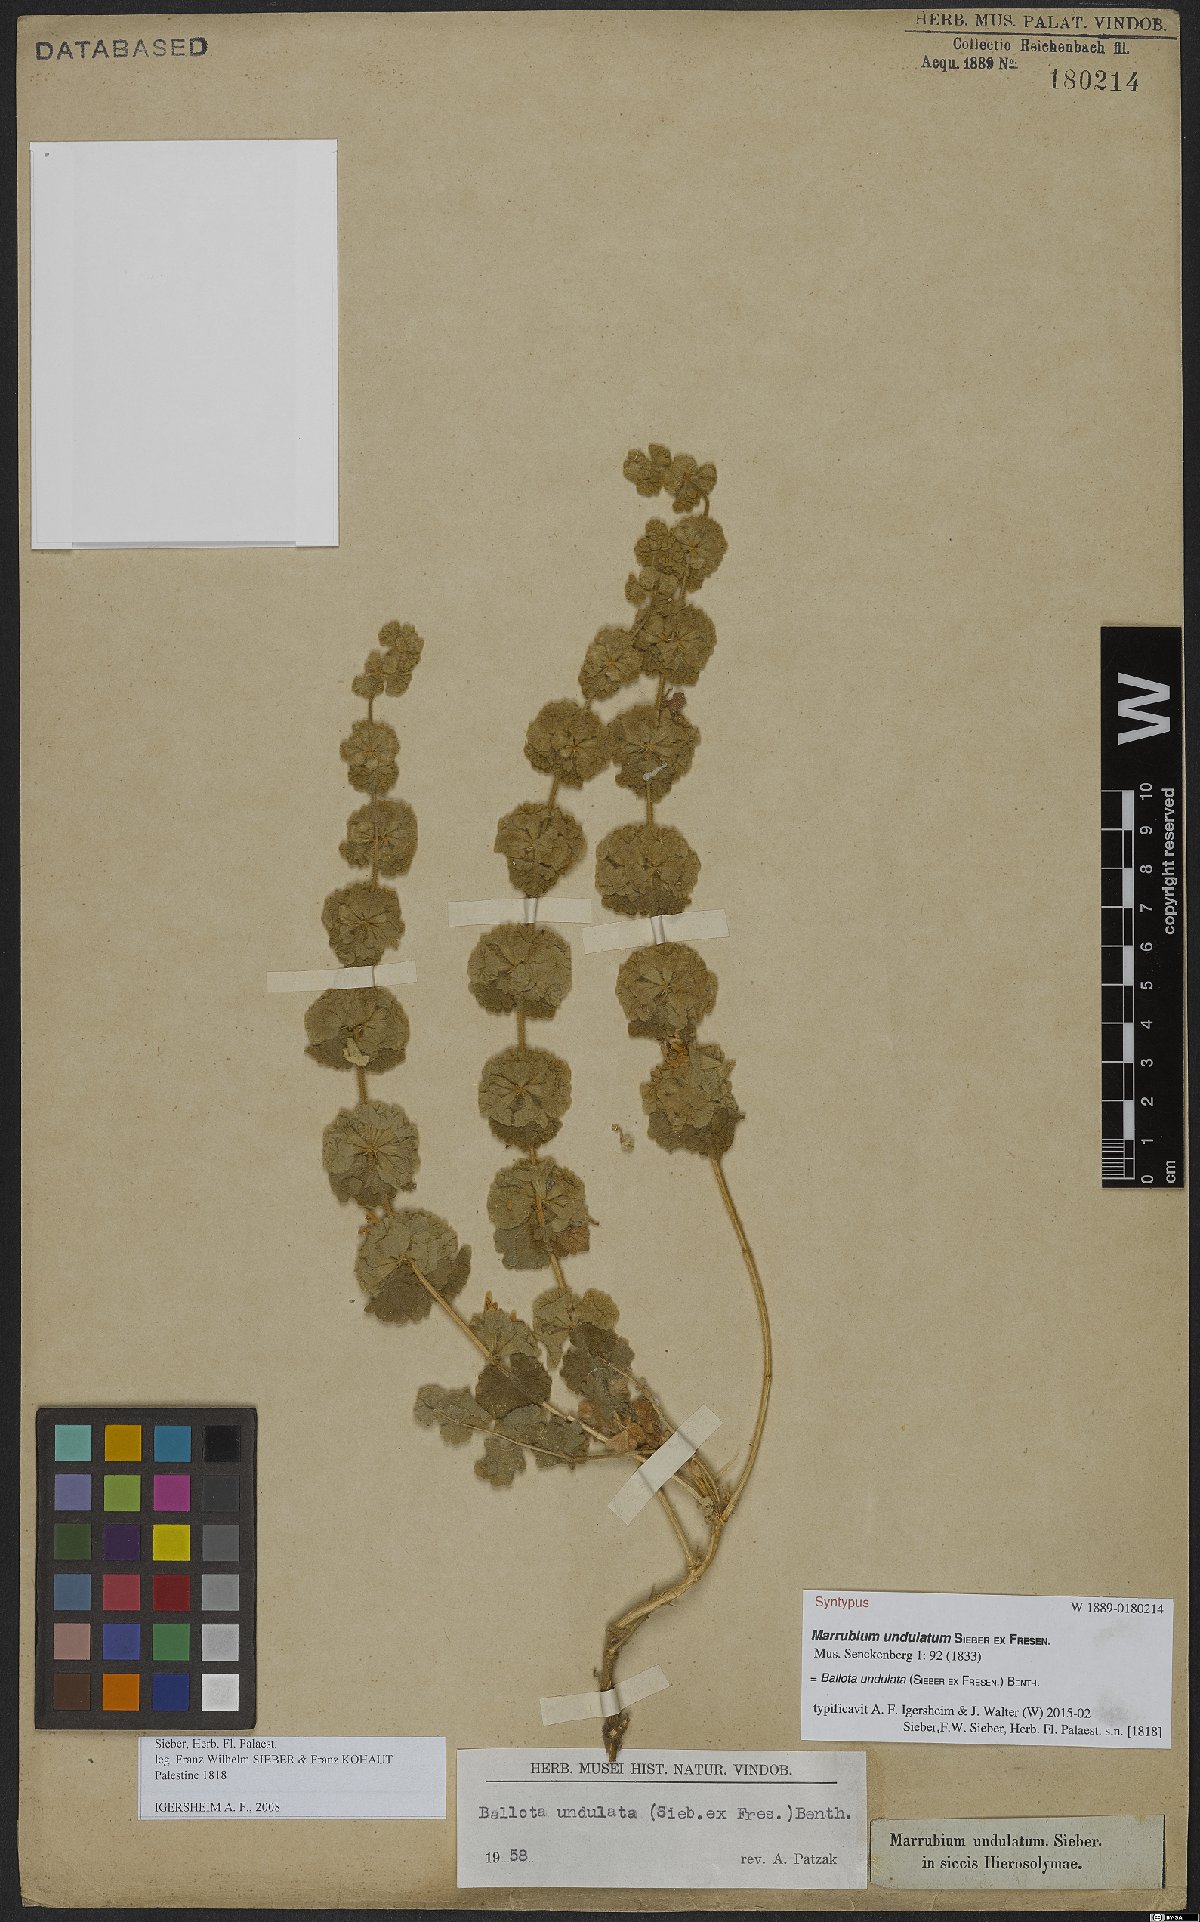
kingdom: Plantae
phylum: Tracheophyta
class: Magnoliopsida
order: Lamiales
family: Lamiaceae
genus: Pseudodictamnus
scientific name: Pseudodictamnus undulatus
